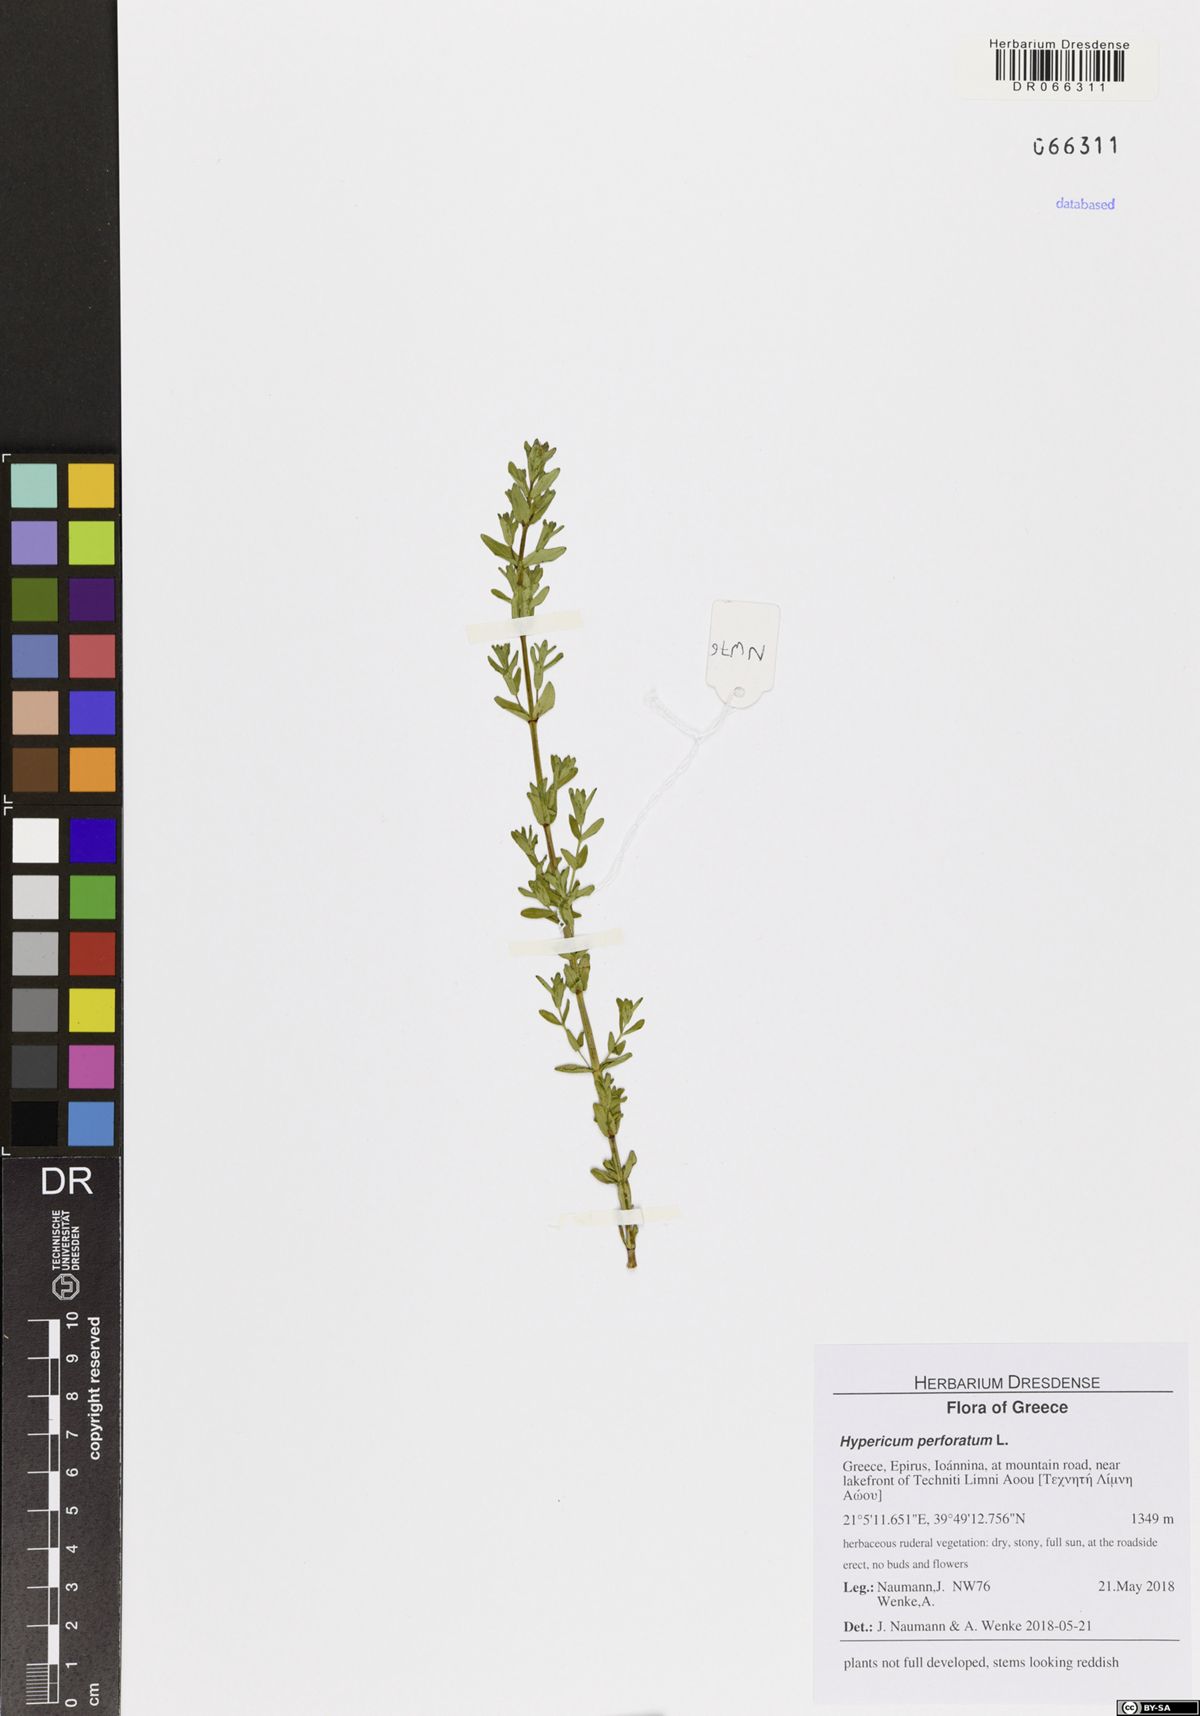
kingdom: Plantae
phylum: Tracheophyta
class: Magnoliopsida
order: Malpighiales
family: Hypericaceae
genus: Hypericum
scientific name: Hypericum perforatum
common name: Common st. johnswort
